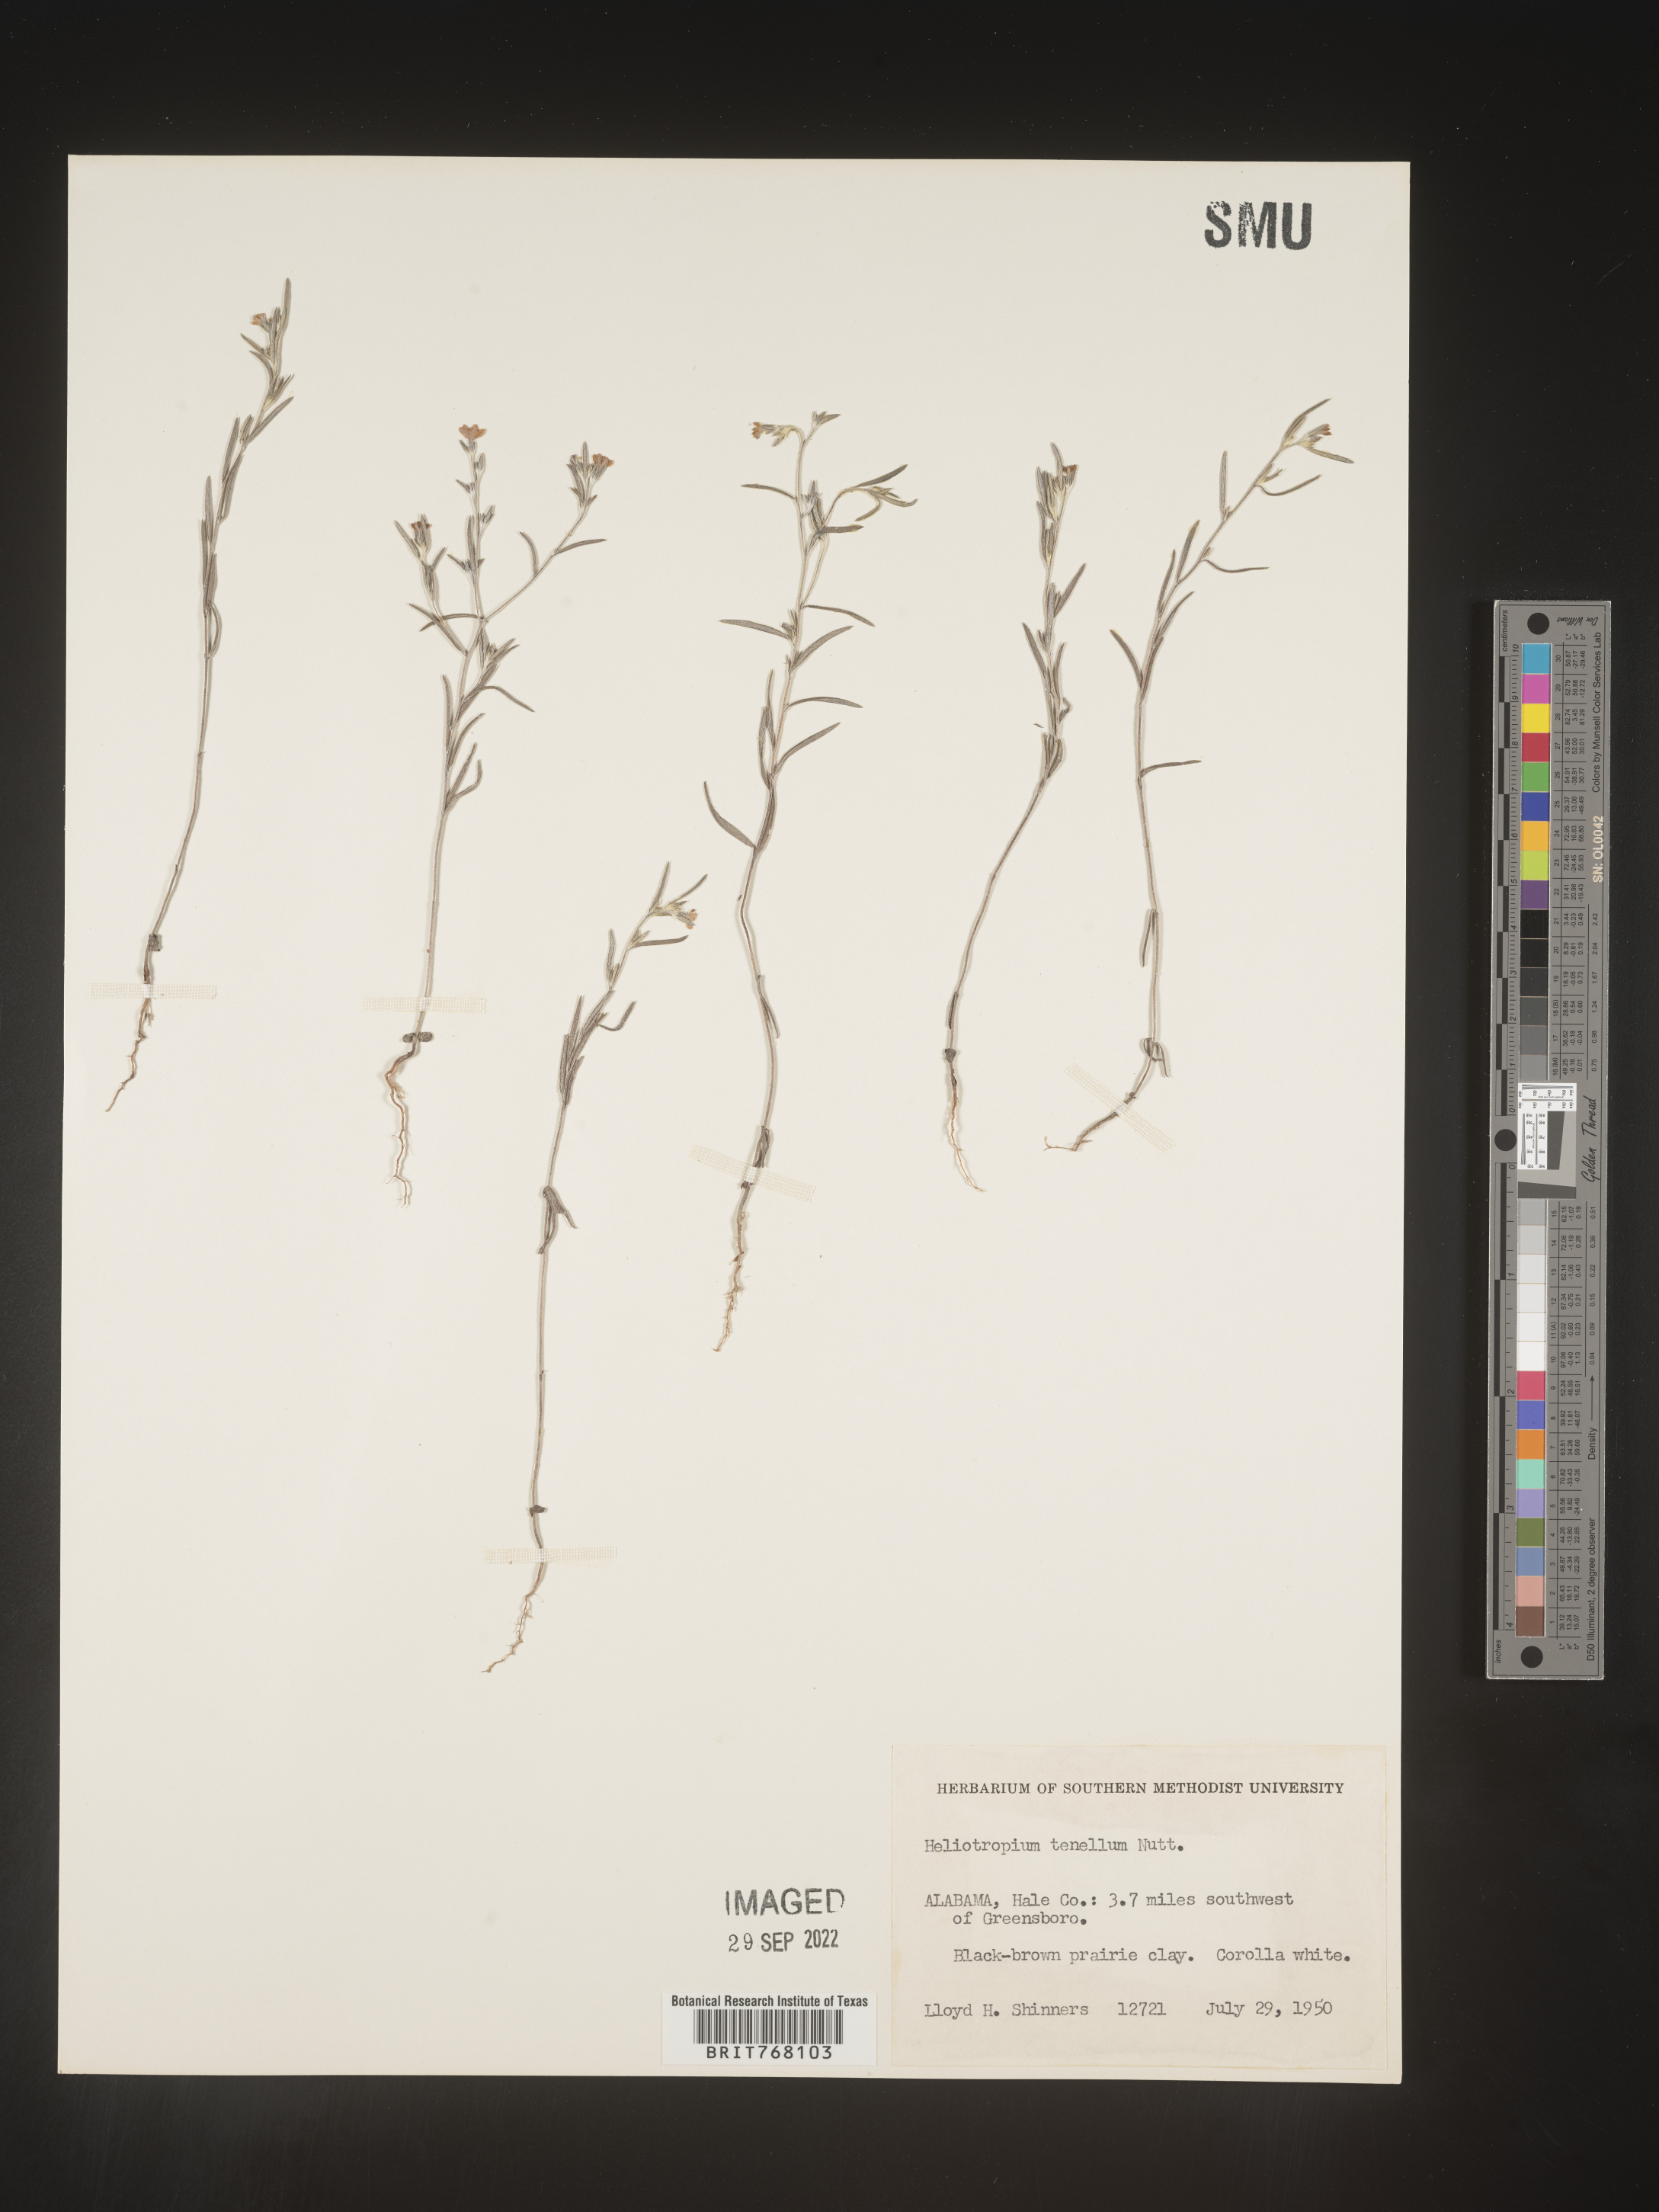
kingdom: Plantae
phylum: Tracheophyta
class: Magnoliopsida
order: Boraginales
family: Heliotropiaceae
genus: Euploca
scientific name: Euploca tenella
